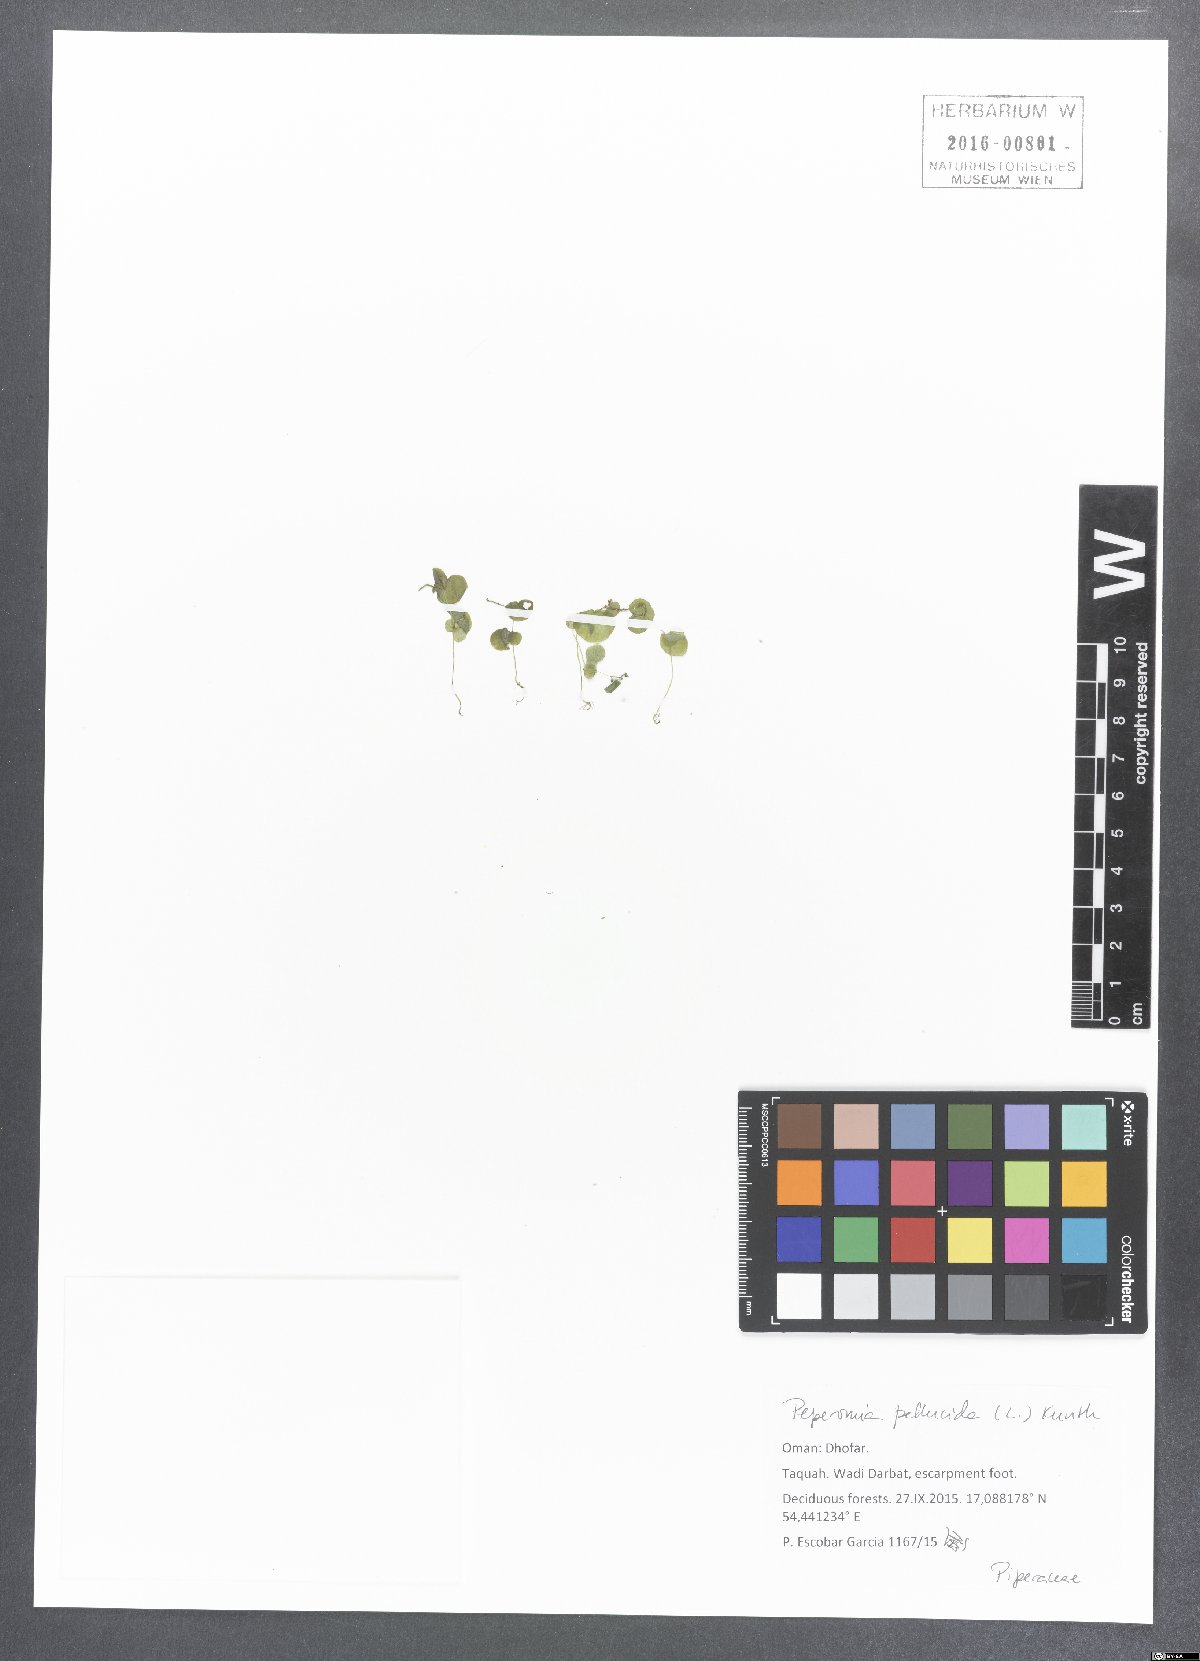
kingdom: Plantae
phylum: Tracheophyta
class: Magnoliopsida
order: Piperales
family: Piperaceae
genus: Peperomia
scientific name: Peperomia pellucida
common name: Man to man
